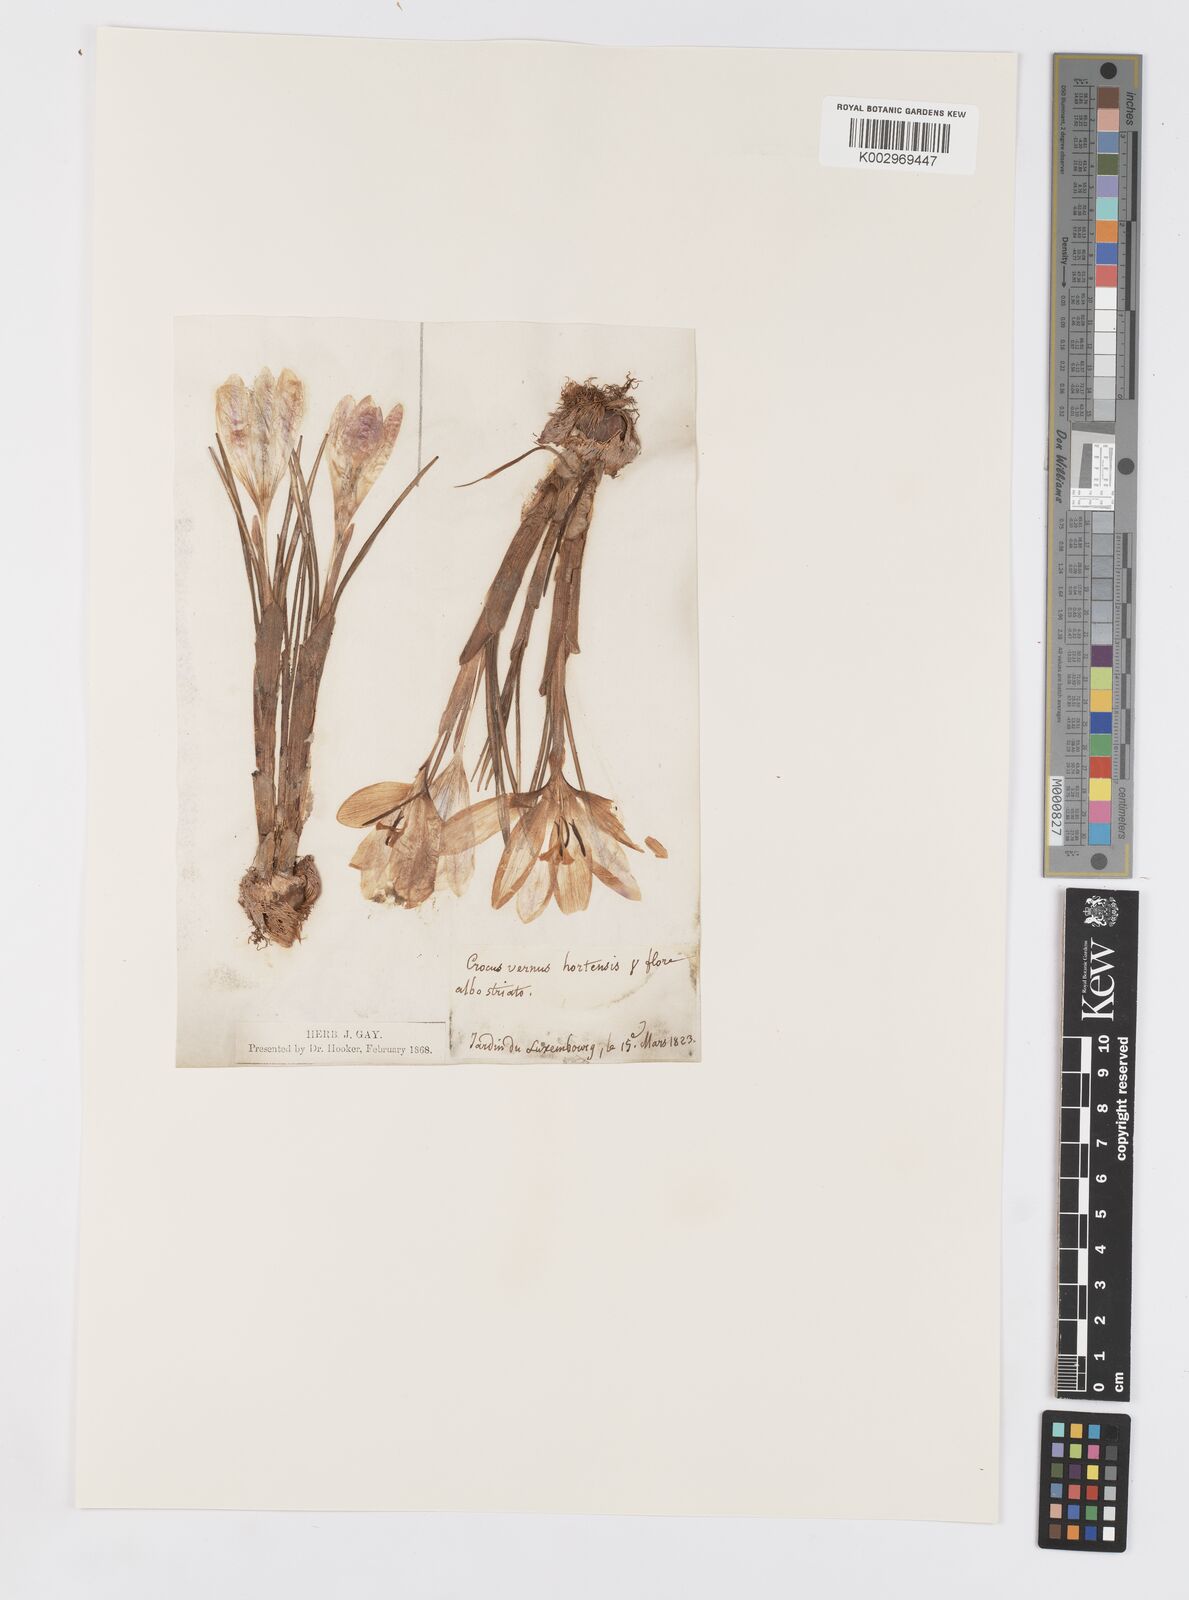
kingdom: Plantae
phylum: Tracheophyta
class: Liliopsida
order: Asparagales
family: Iridaceae
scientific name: Iridaceae
